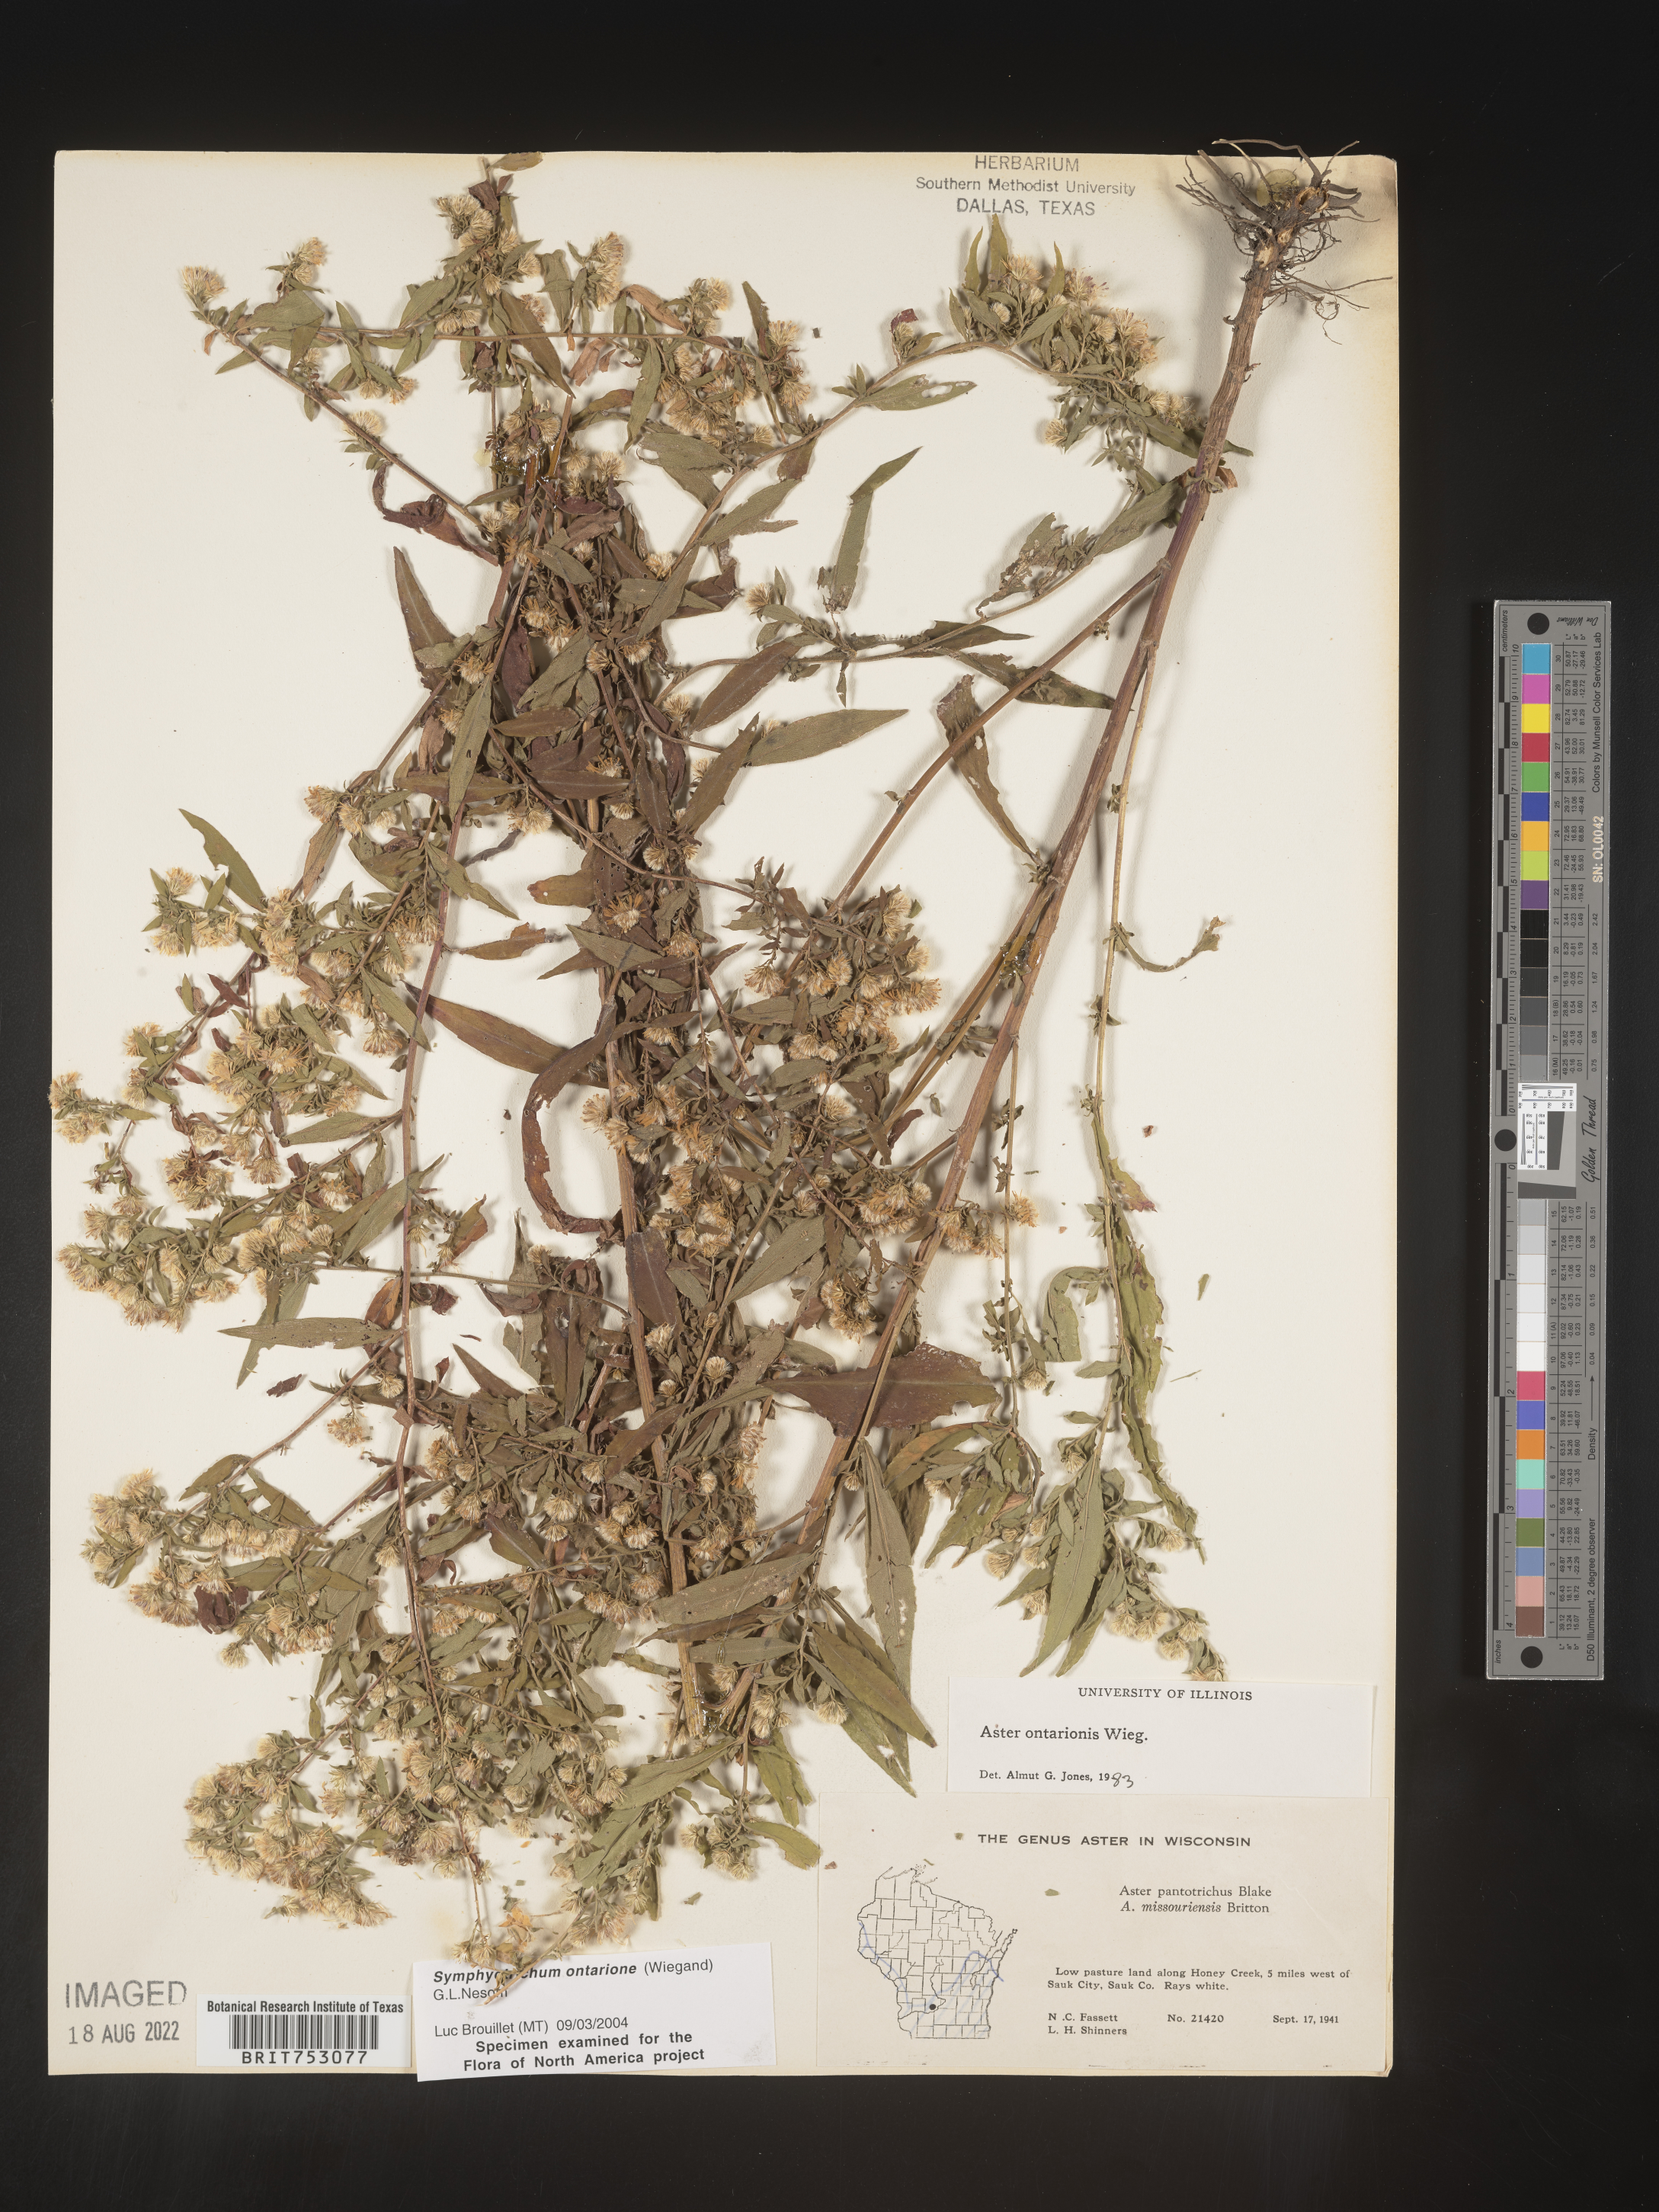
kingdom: Plantae
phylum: Tracheophyta
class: Magnoliopsida
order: Asterales
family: Asteraceae
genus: Symphyotrichum
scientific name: Symphyotrichum ontarionis
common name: Bottomland aster
